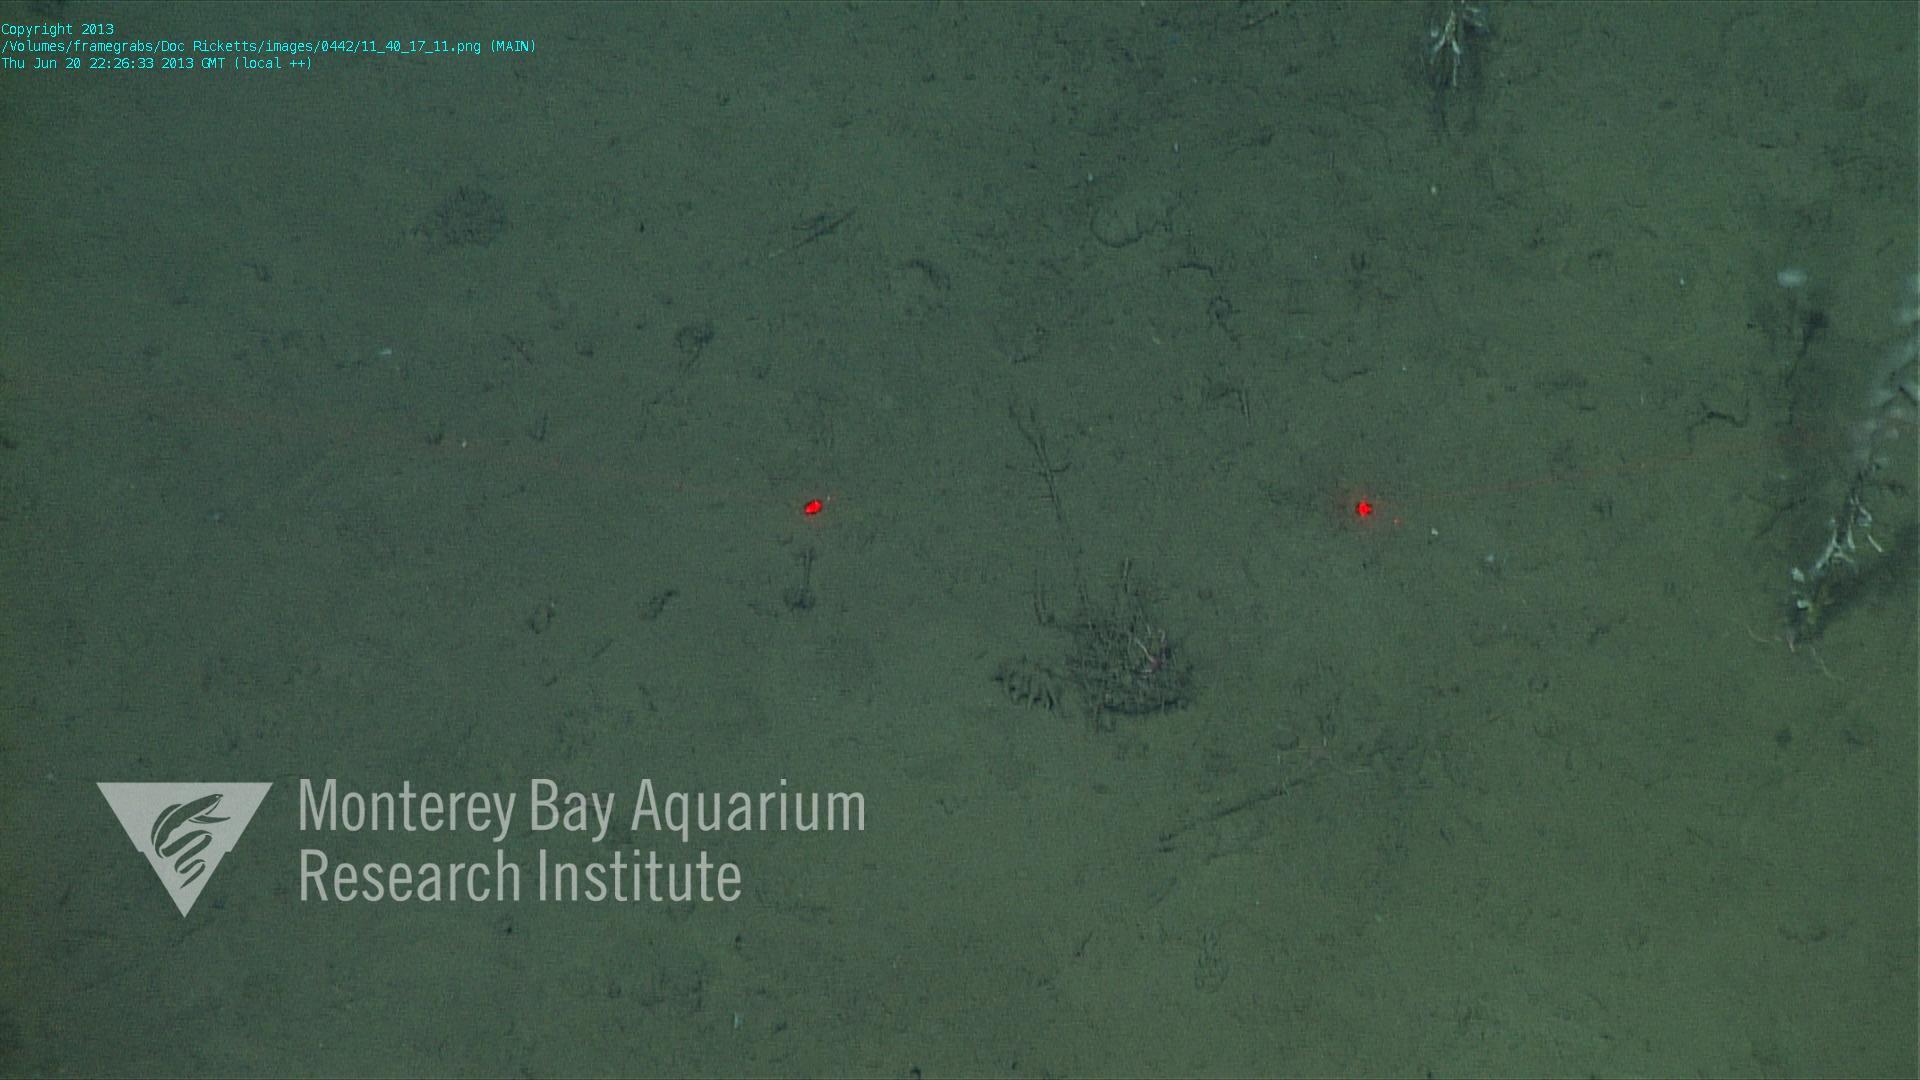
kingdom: Animalia
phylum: Porifera
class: Demospongiae
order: Poecilosclerida
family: Cladorhizidae
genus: Cladorhiza
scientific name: Cladorhiza
